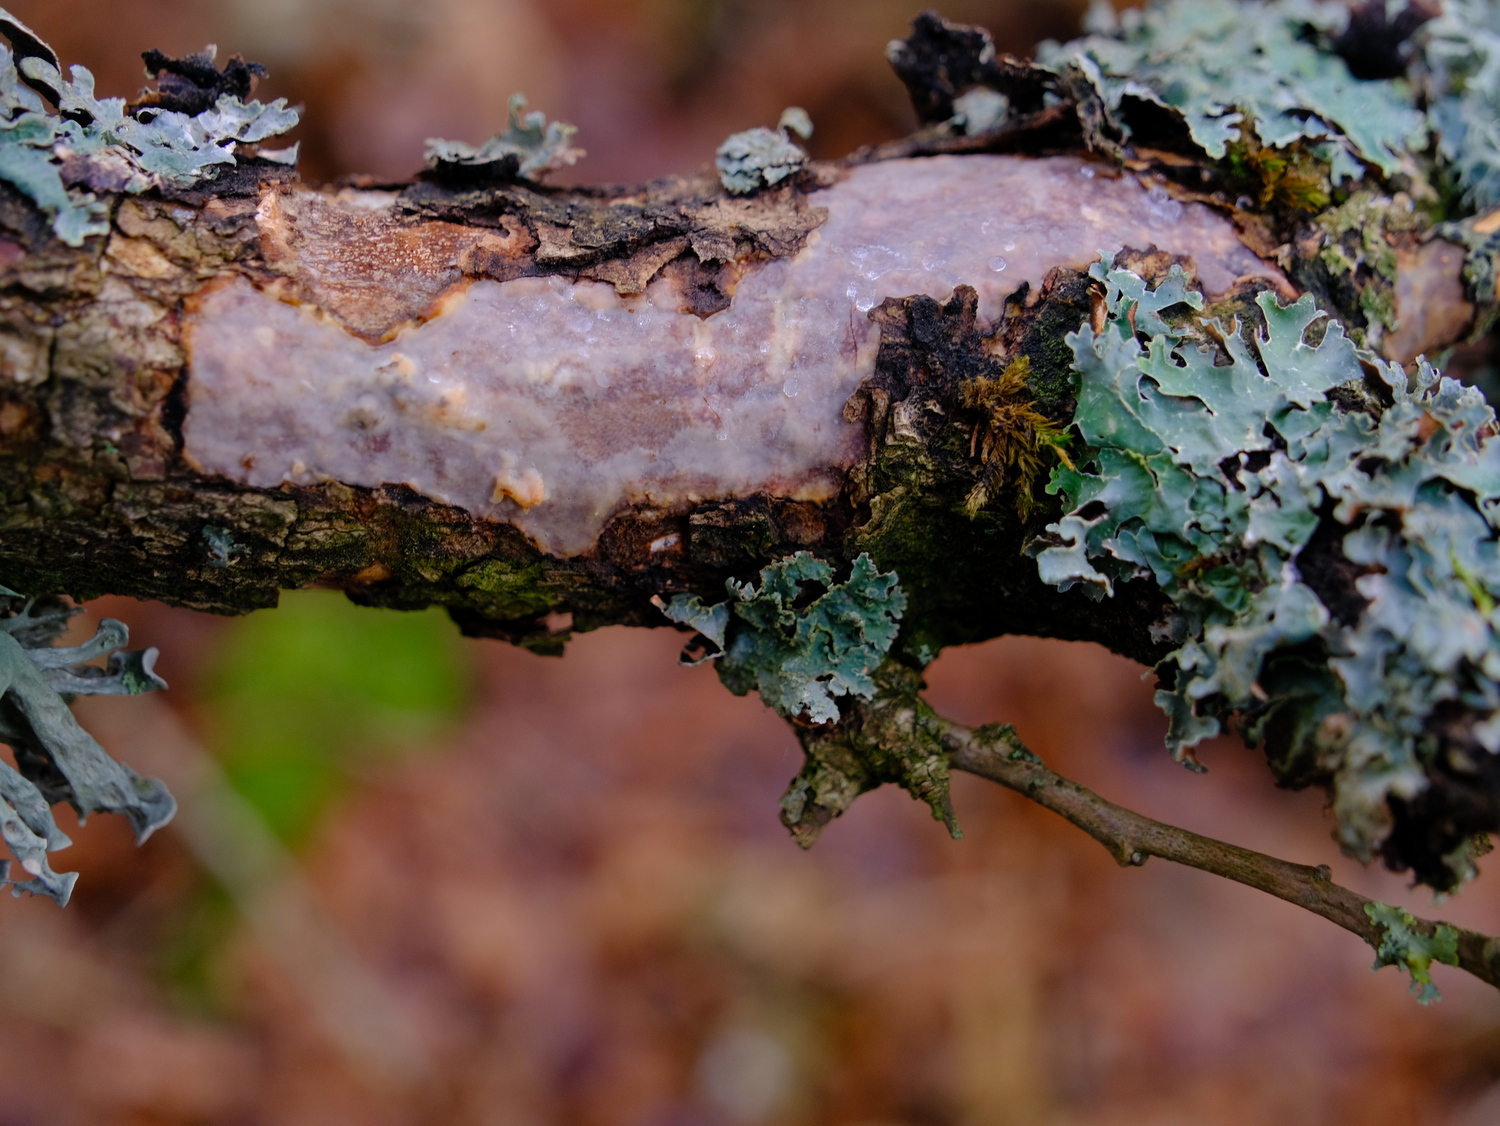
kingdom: Fungi
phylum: Basidiomycota
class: Agaricomycetes
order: Corticiales
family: Vuilleminiaceae
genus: Vuilleminia
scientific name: Vuilleminia comedens
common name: almindelig barksprænger
